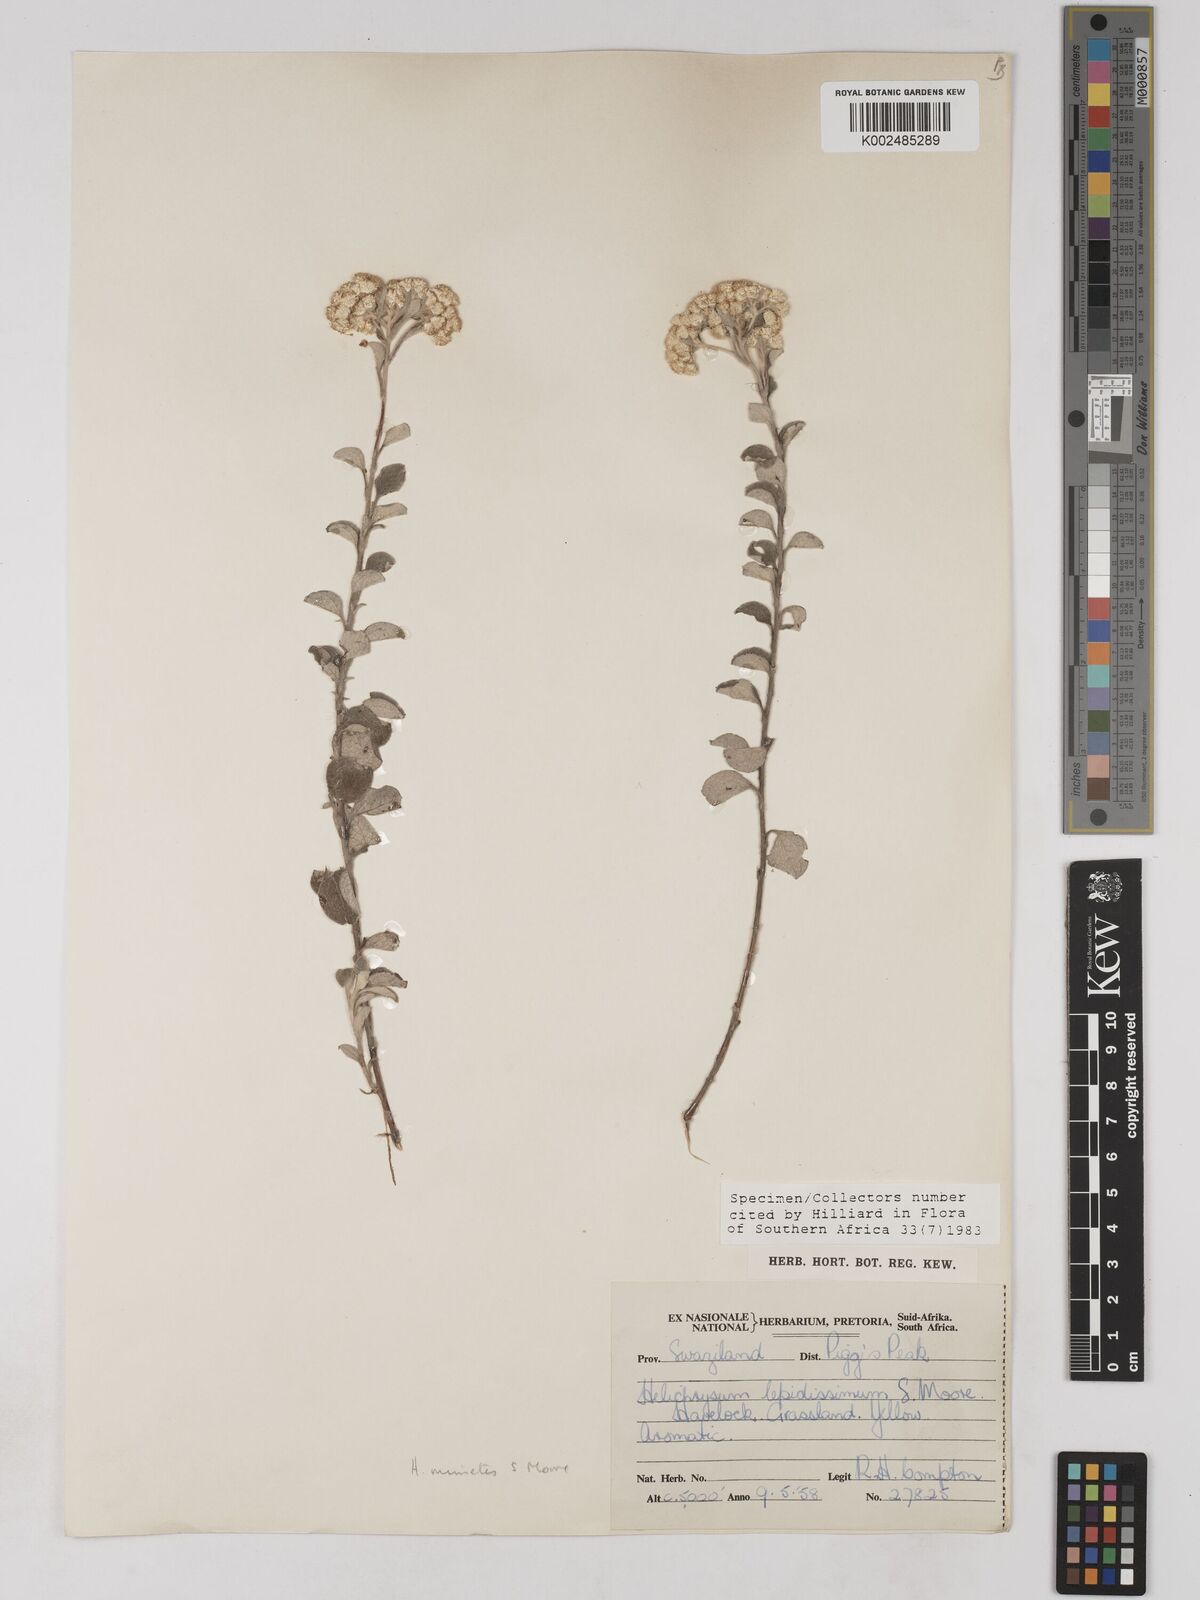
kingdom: Plantae
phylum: Tracheophyta
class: Magnoliopsida
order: Asterales
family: Asteraceae
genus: Helichrysum
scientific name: Helichrysum mimetes
